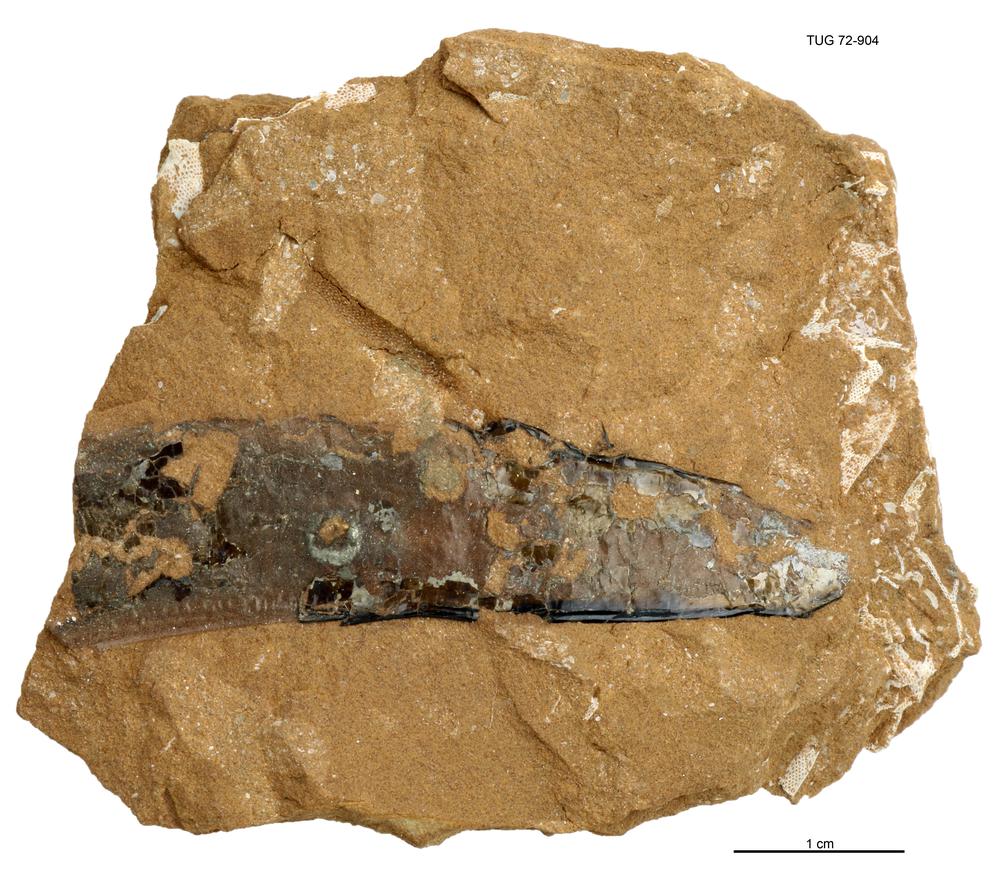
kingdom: Animalia
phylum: Cnidaria
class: Scyphozoa
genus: Sphenothallus
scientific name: Sphenothallus
